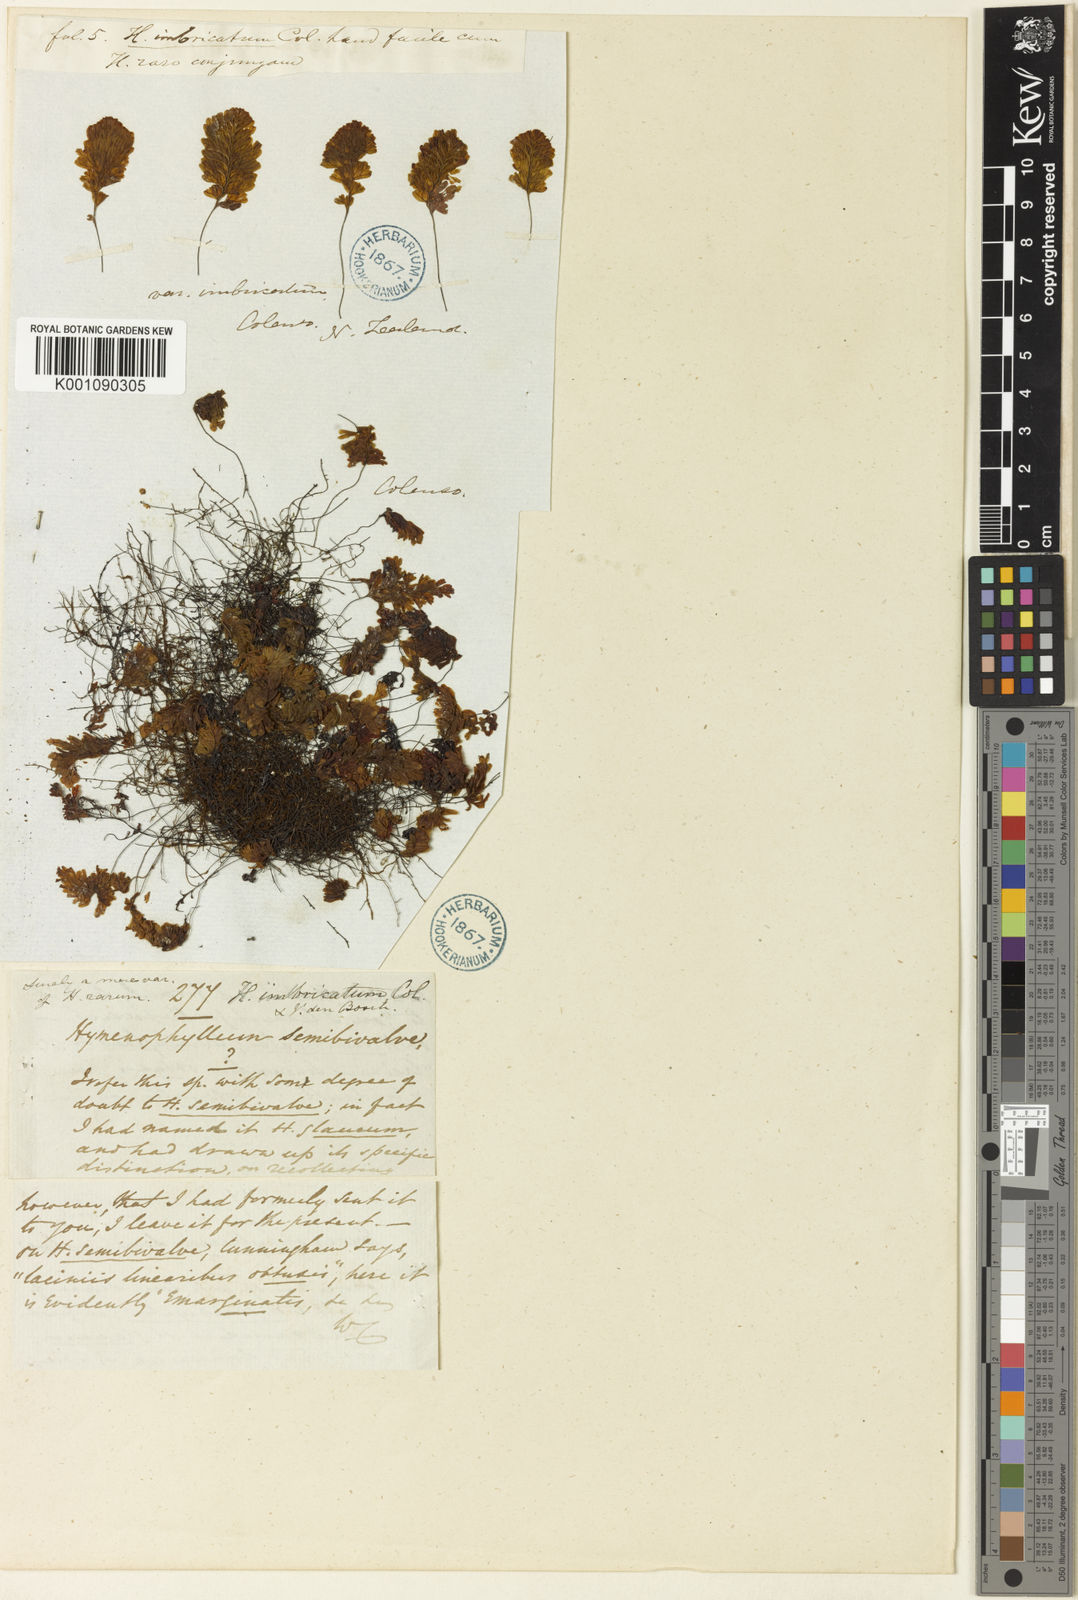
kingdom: Plantae
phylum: Tracheophyta
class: Polypodiopsida
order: Hymenophyllales
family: Hymenophyllaceae
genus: Hymenophyllum
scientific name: Hymenophyllum rarum
